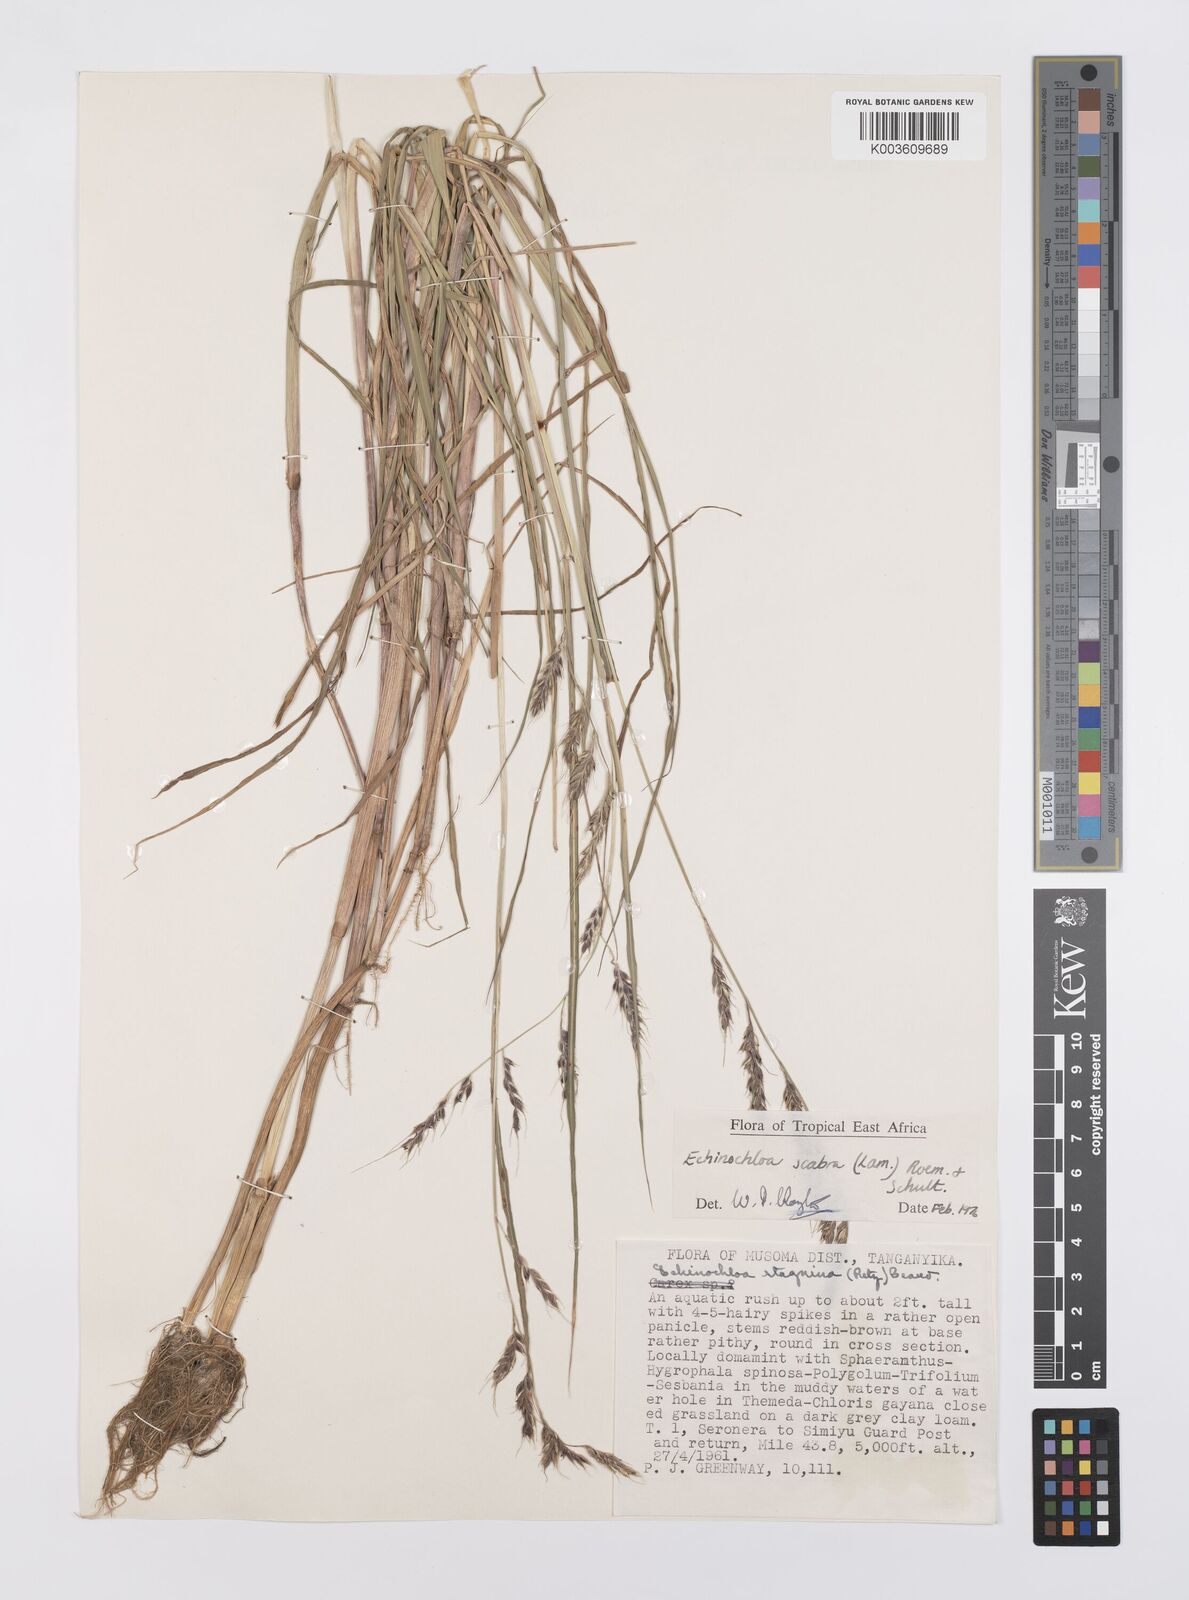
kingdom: Plantae
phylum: Tracheophyta
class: Liliopsida
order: Poales
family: Poaceae
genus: Echinochloa
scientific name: Echinochloa stagnina
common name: Burgu grass
